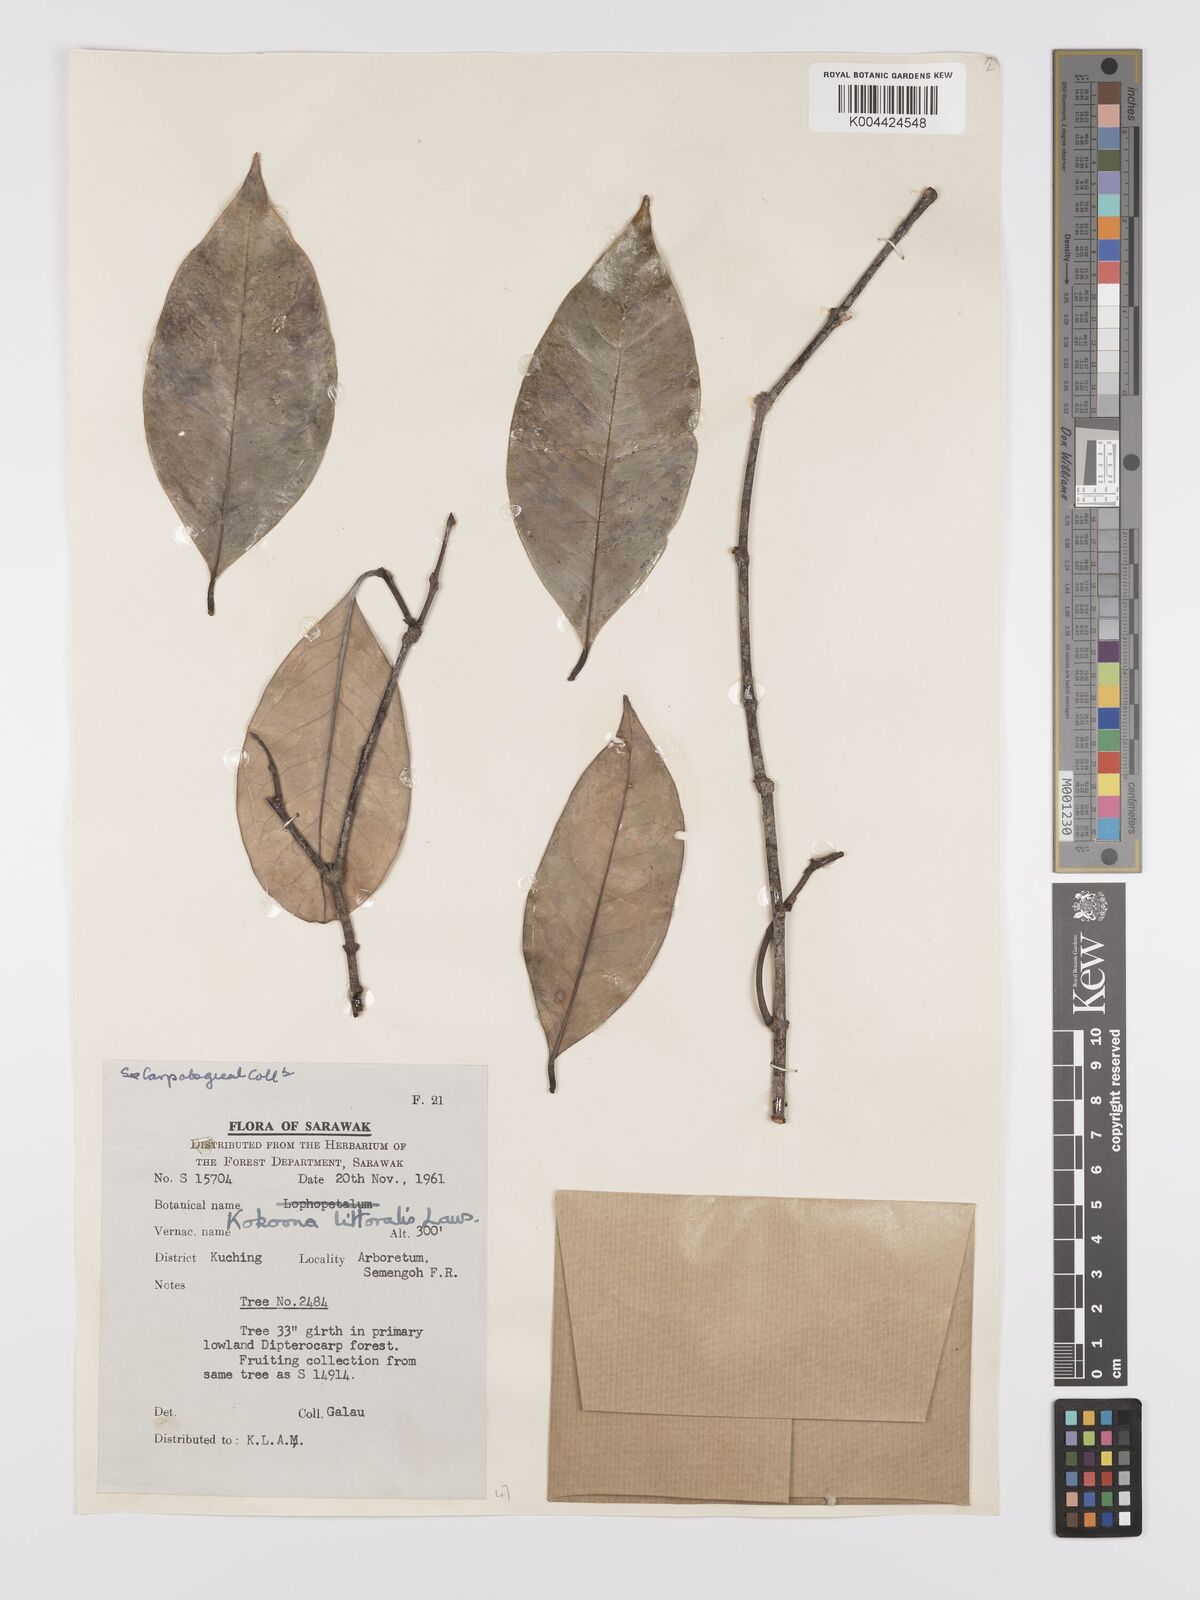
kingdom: Plantae
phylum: Tracheophyta
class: Magnoliopsida
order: Celastrales
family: Celastraceae
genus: Kokoona
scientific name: Kokoona littoralis
